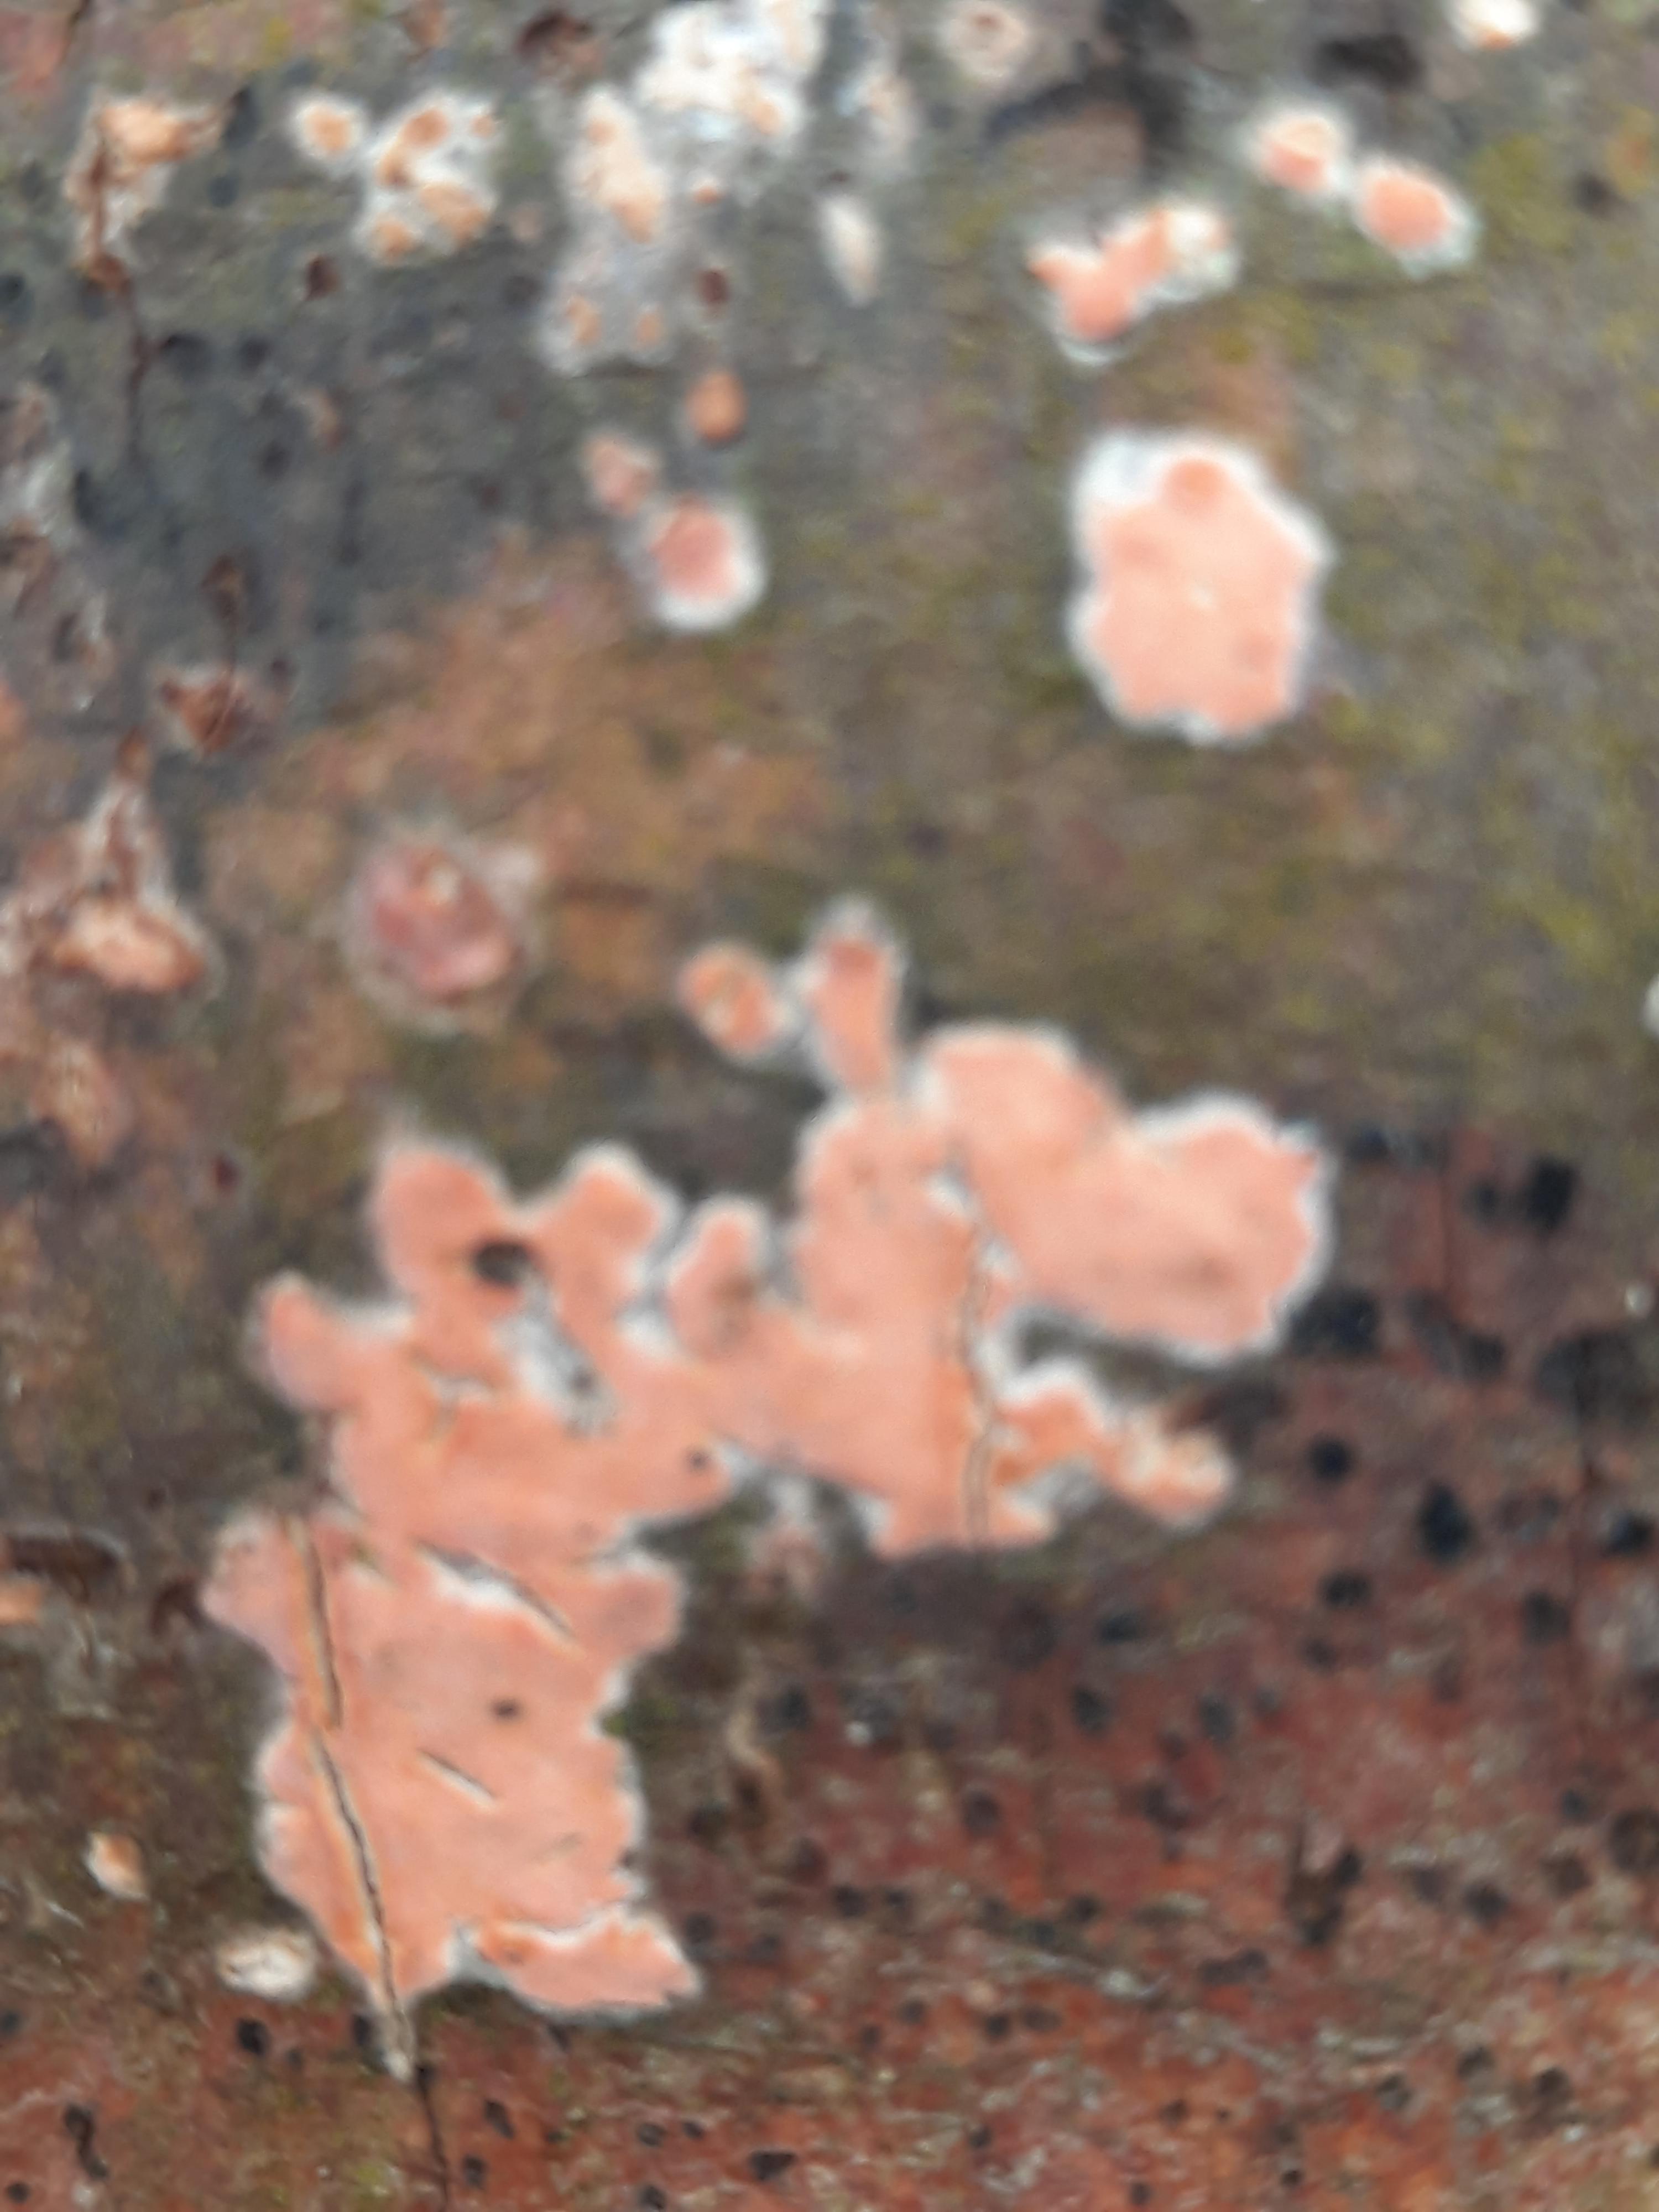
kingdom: Fungi
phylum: Basidiomycota
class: Agaricomycetes
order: Russulales
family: Peniophoraceae
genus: Peniophora
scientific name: Peniophora incarnata
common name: laksefarvet voksskind
